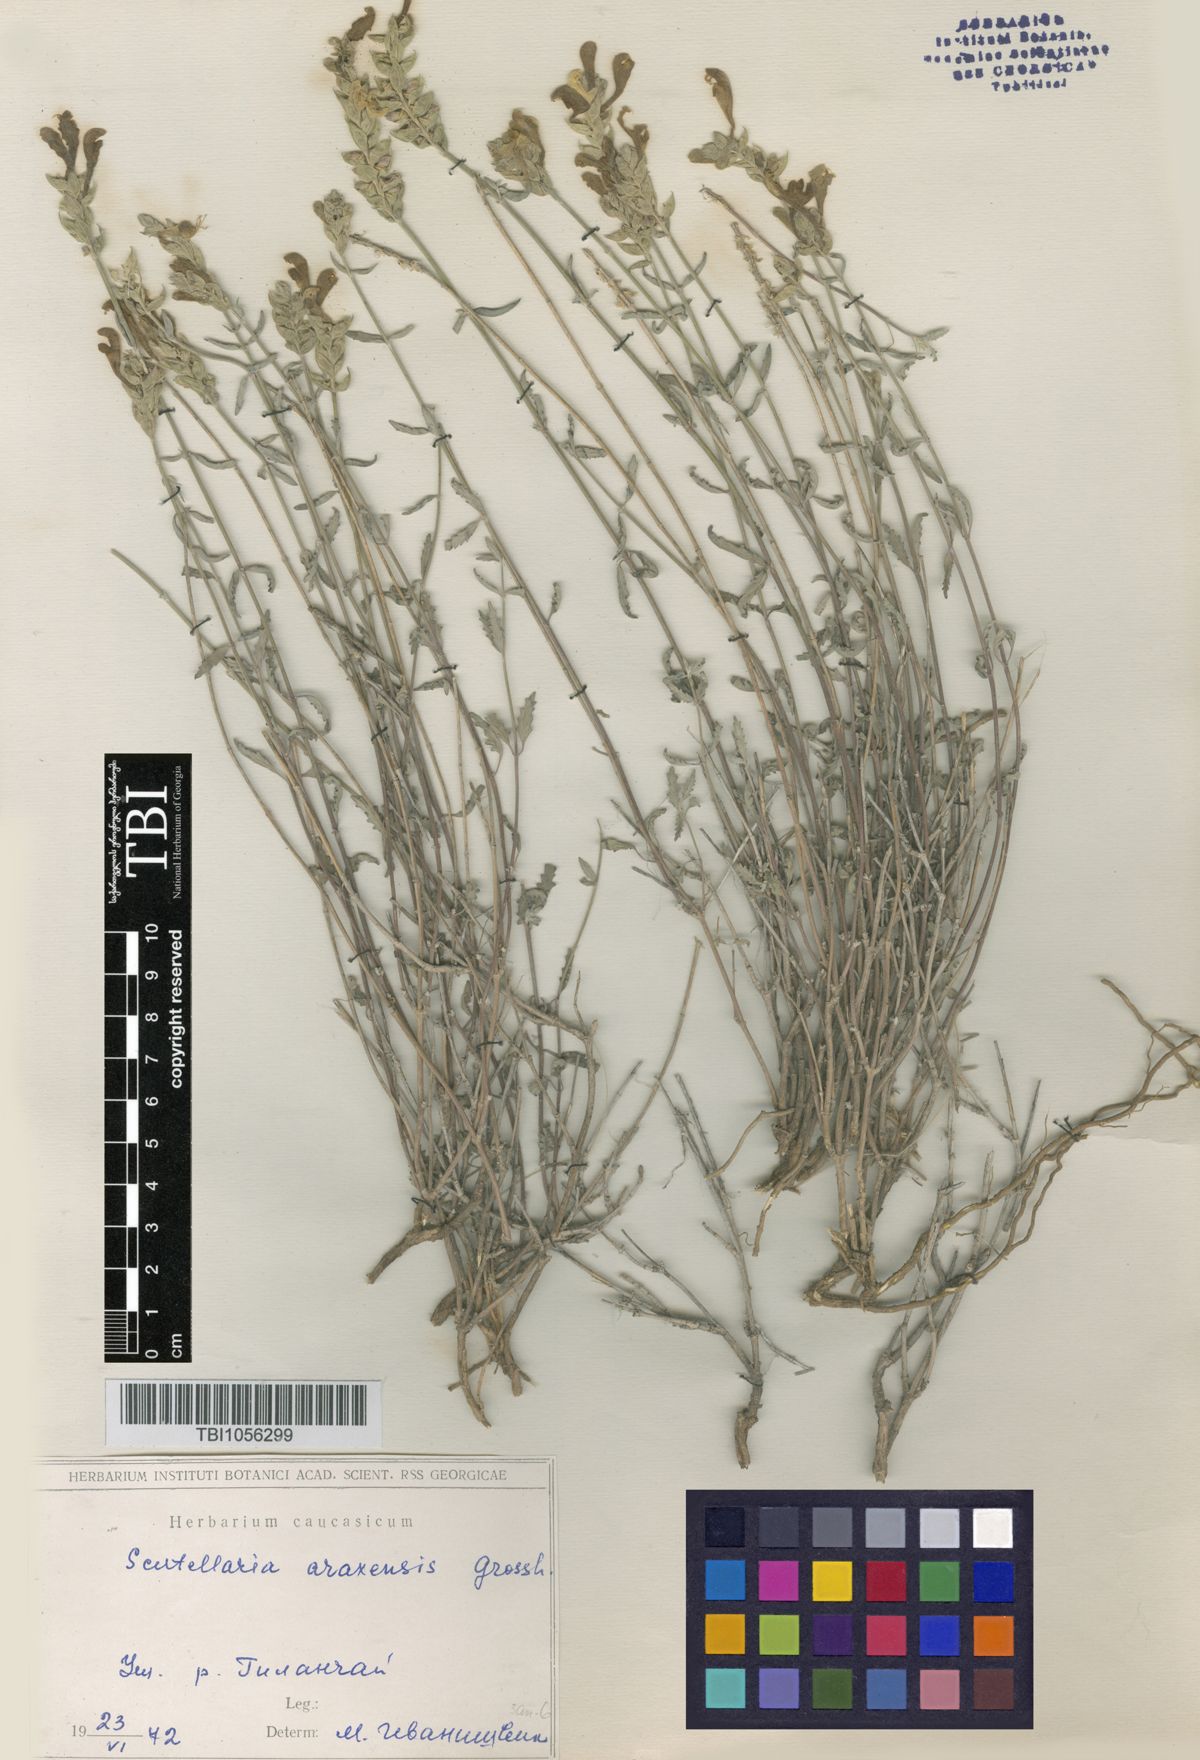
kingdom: Plantae
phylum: Tracheophyta
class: Magnoliopsida
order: Lamiales
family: Lamiaceae
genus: Scutellaria
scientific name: Scutellaria araxensis
